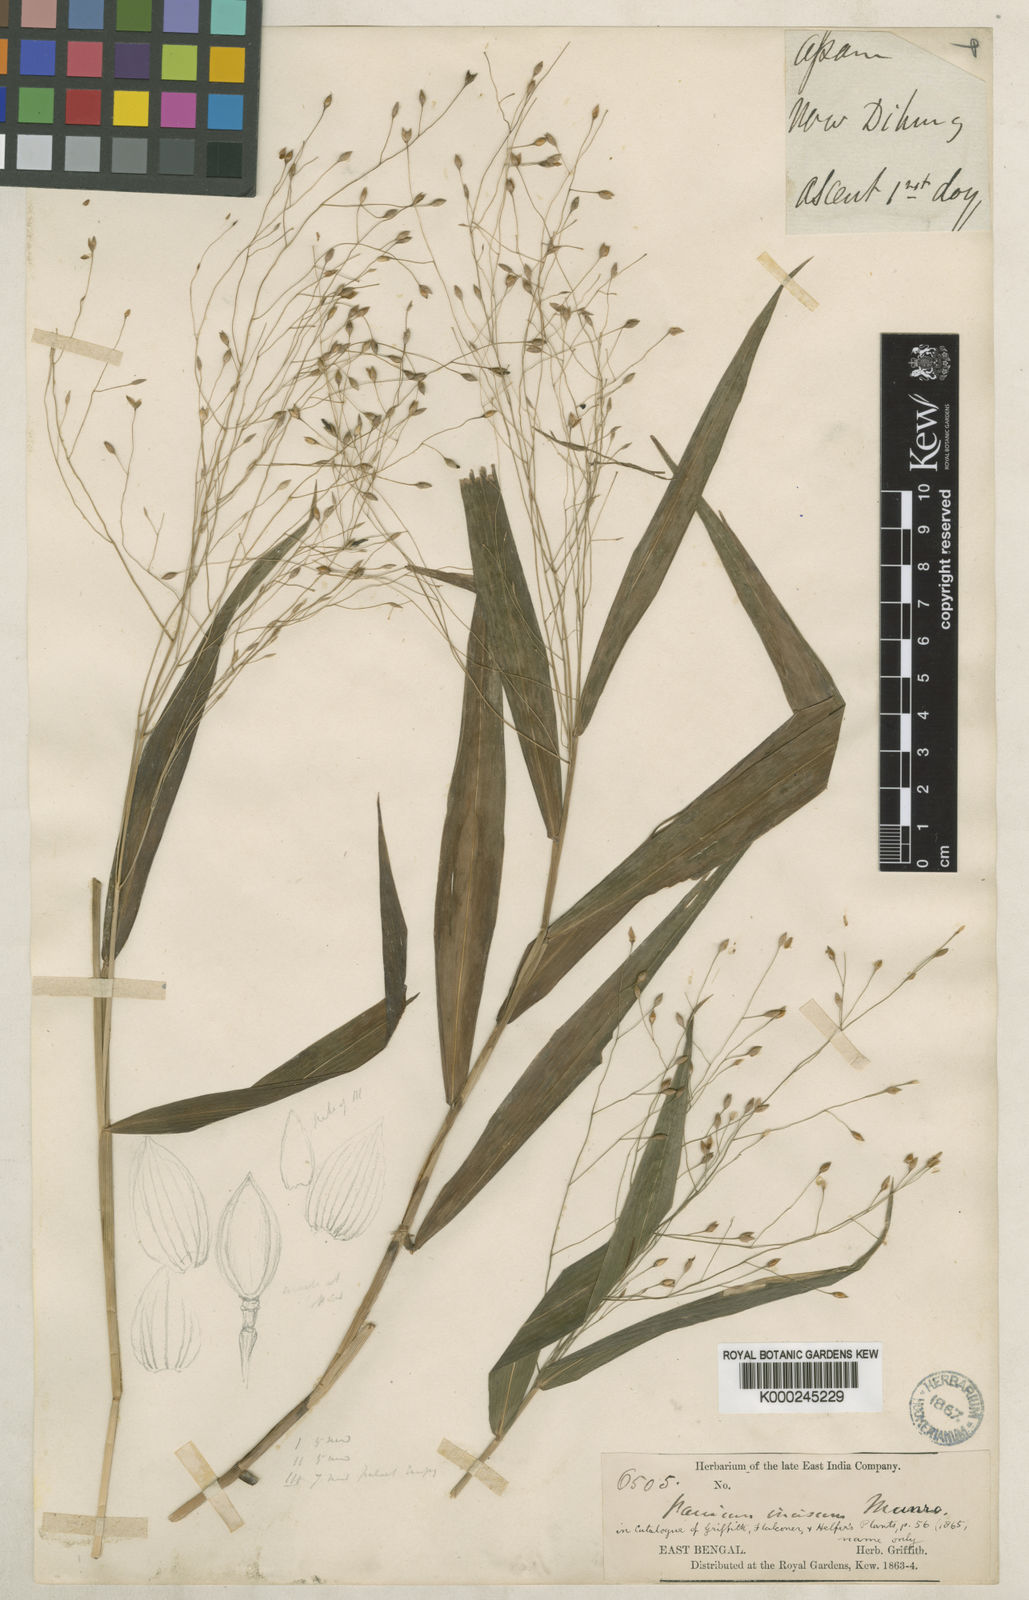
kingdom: Plantae
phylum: Tracheophyta
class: Liliopsida
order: Poales
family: Poaceae
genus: Panicum
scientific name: Panicum incisum
